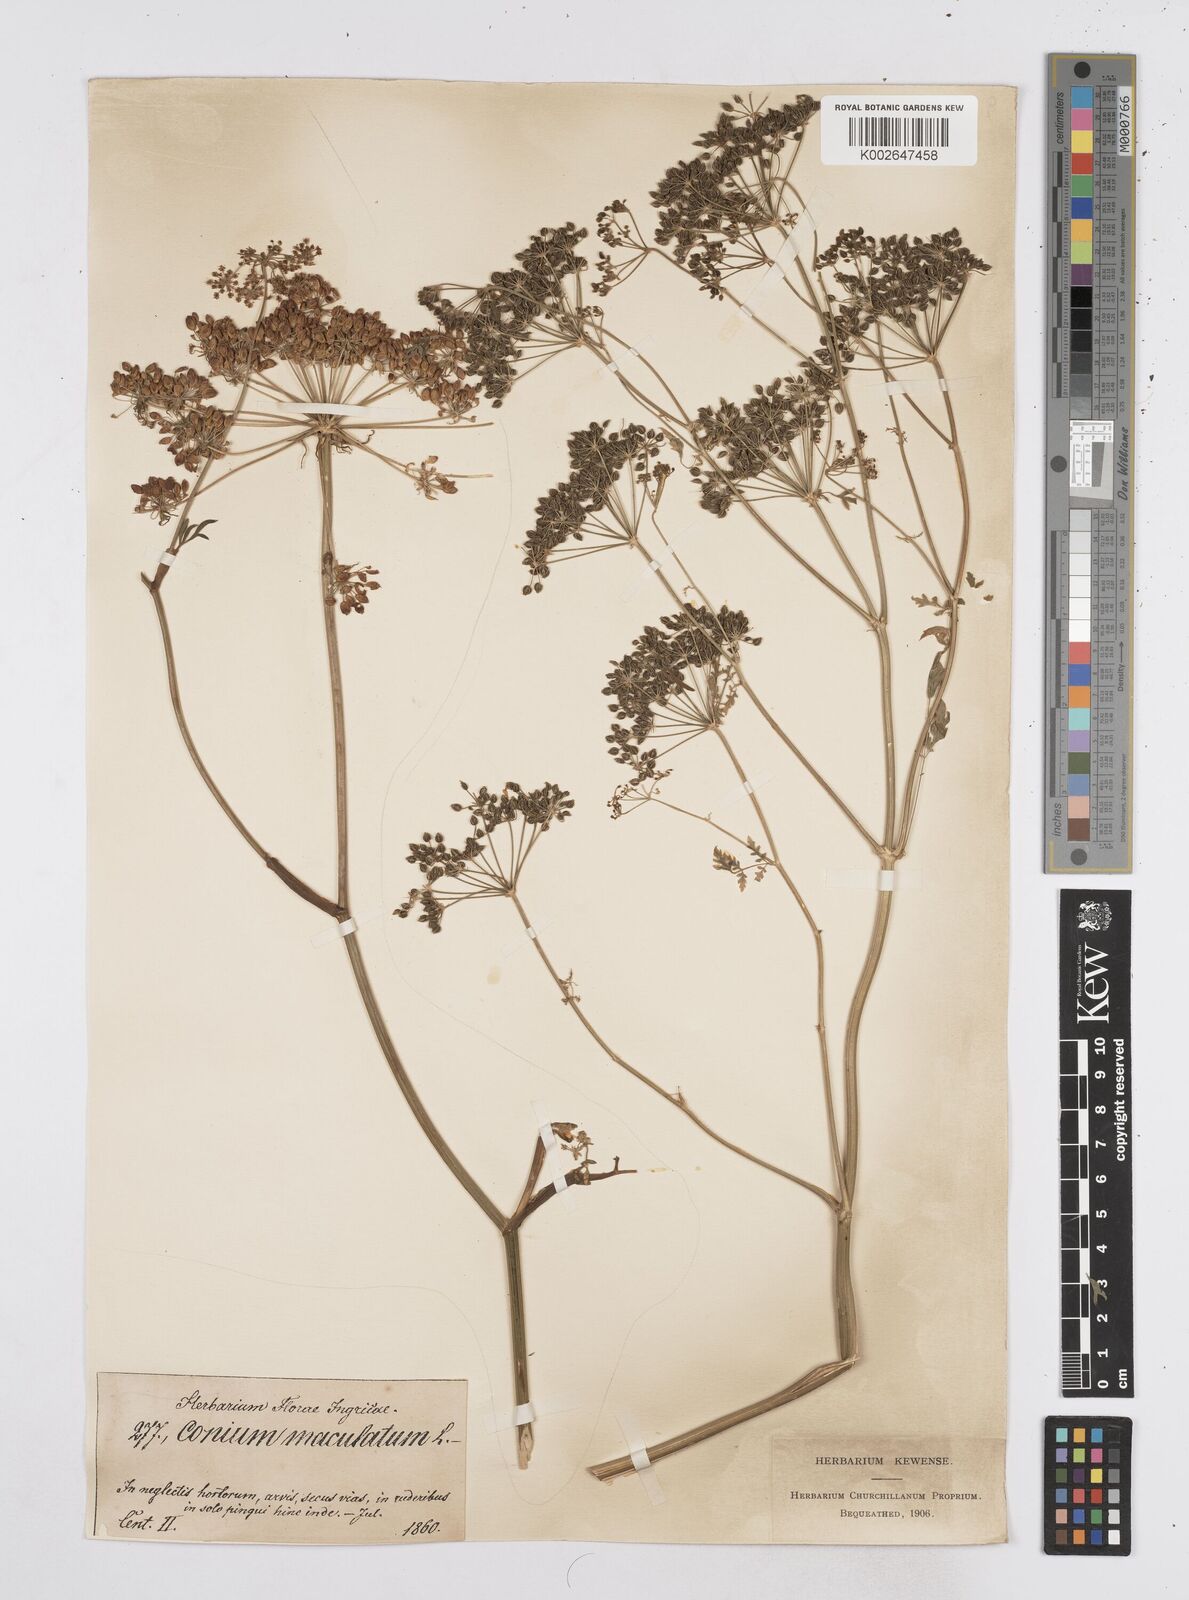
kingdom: Plantae
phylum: Tracheophyta
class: Magnoliopsida
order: Apiales
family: Apiaceae
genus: Conium
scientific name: Conium maculatum
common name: Hemlock
